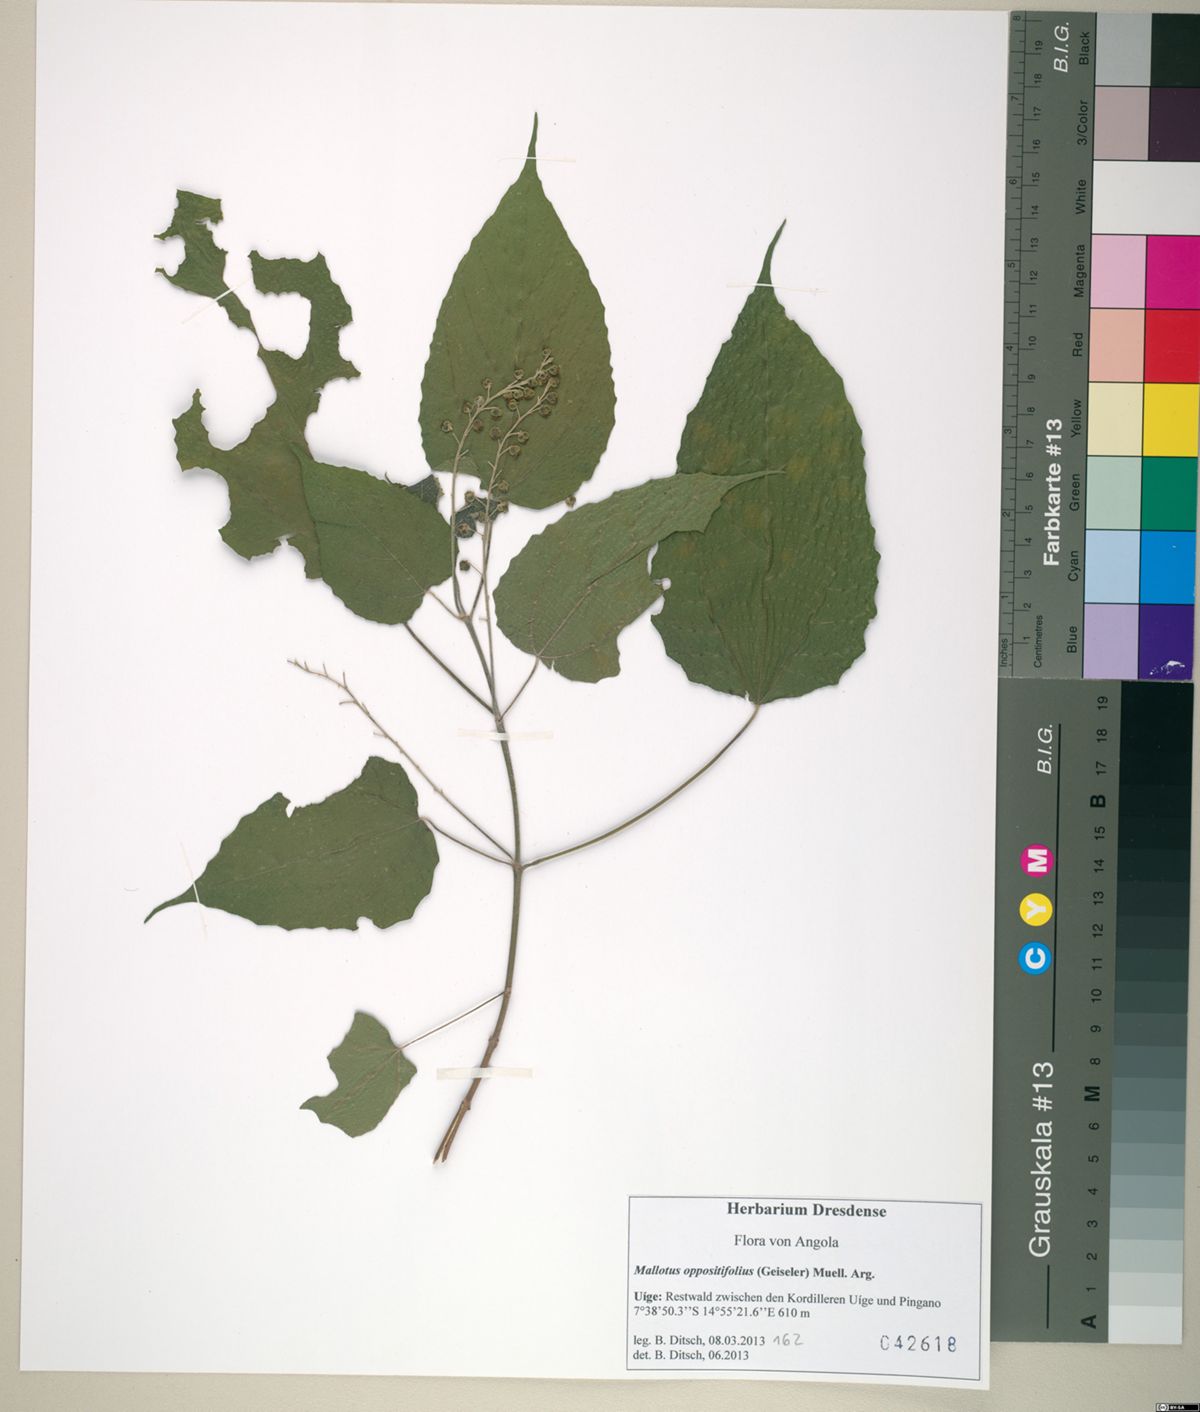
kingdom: Plantae
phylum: Tracheophyta
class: Magnoliopsida
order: Malpighiales
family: Euphorbiaceae
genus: Mallotus
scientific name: Mallotus oppositifolius
